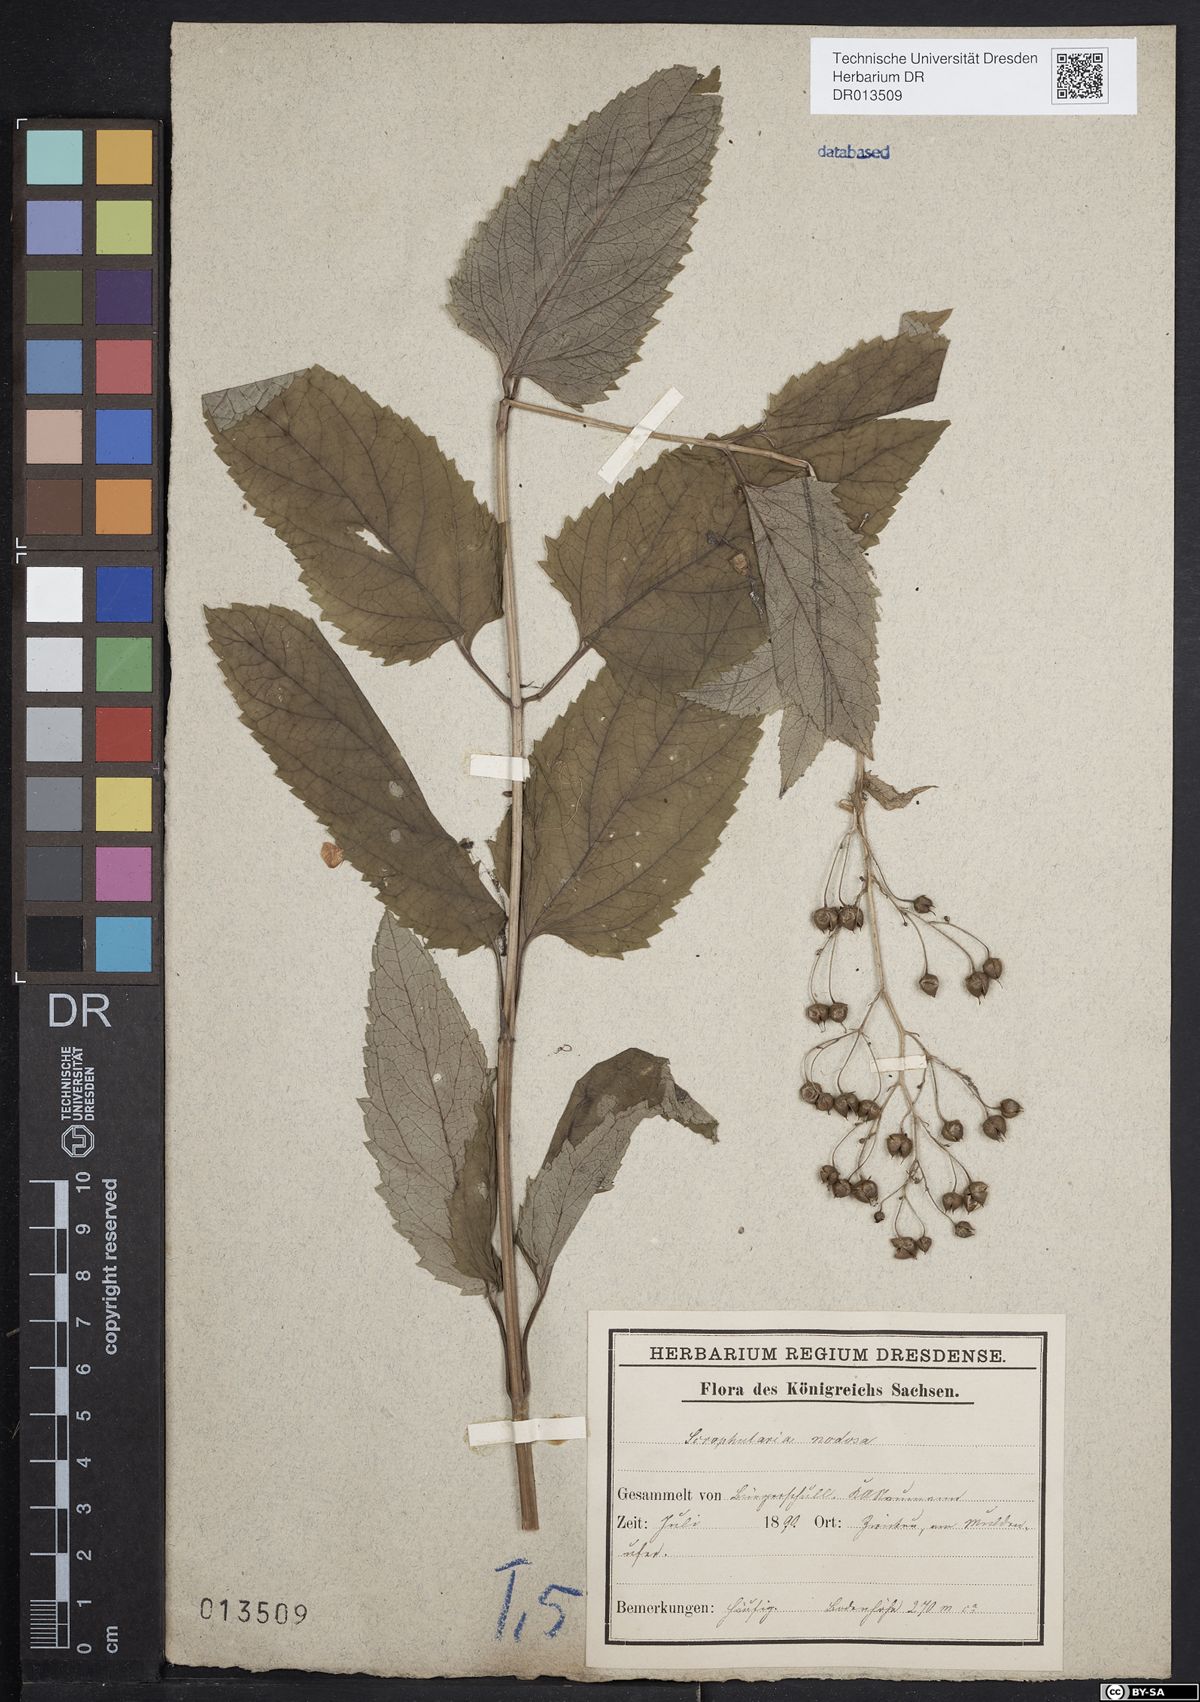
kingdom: Plantae
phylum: Tracheophyta
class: Magnoliopsida
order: Lamiales
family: Scrophulariaceae
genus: Scrophularia
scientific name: Scrophularia nodosa
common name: Common figwort
